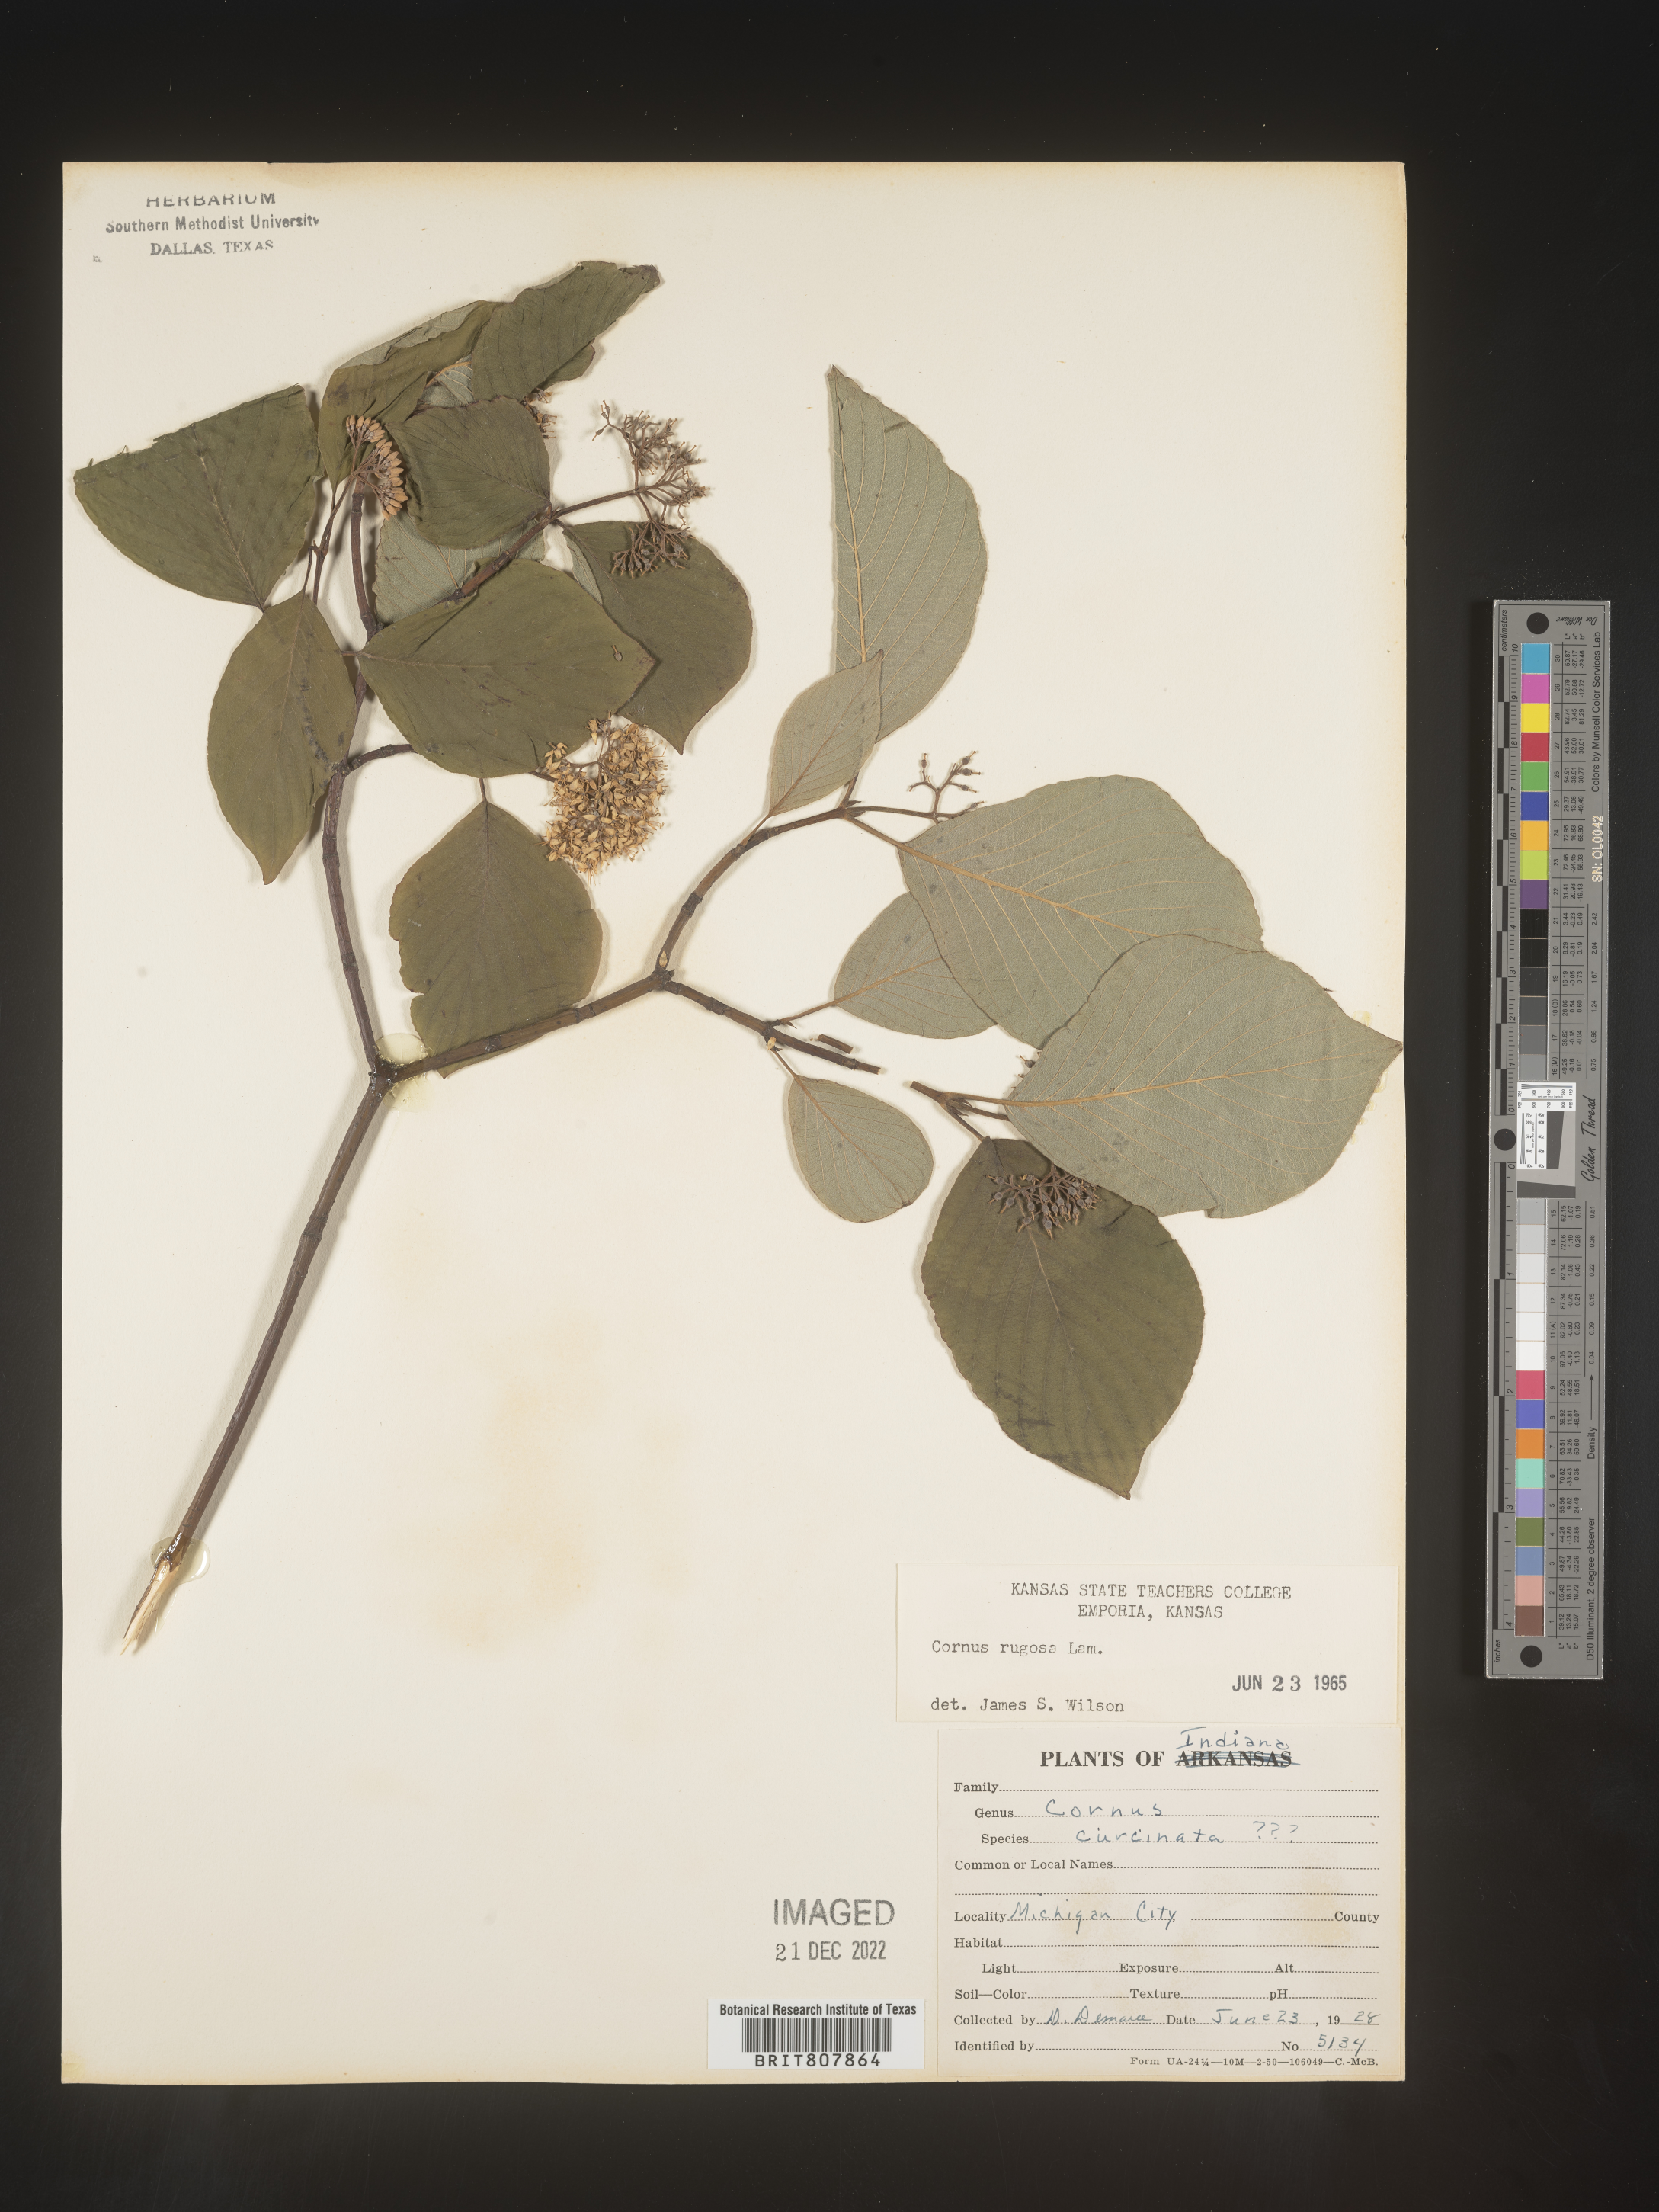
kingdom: Plantae
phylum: Tracheophyta
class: Magnoliopsida
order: Cornales
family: Cornaceae
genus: Cornus
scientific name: Cornus rugosa
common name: Round-leaf dogwood
